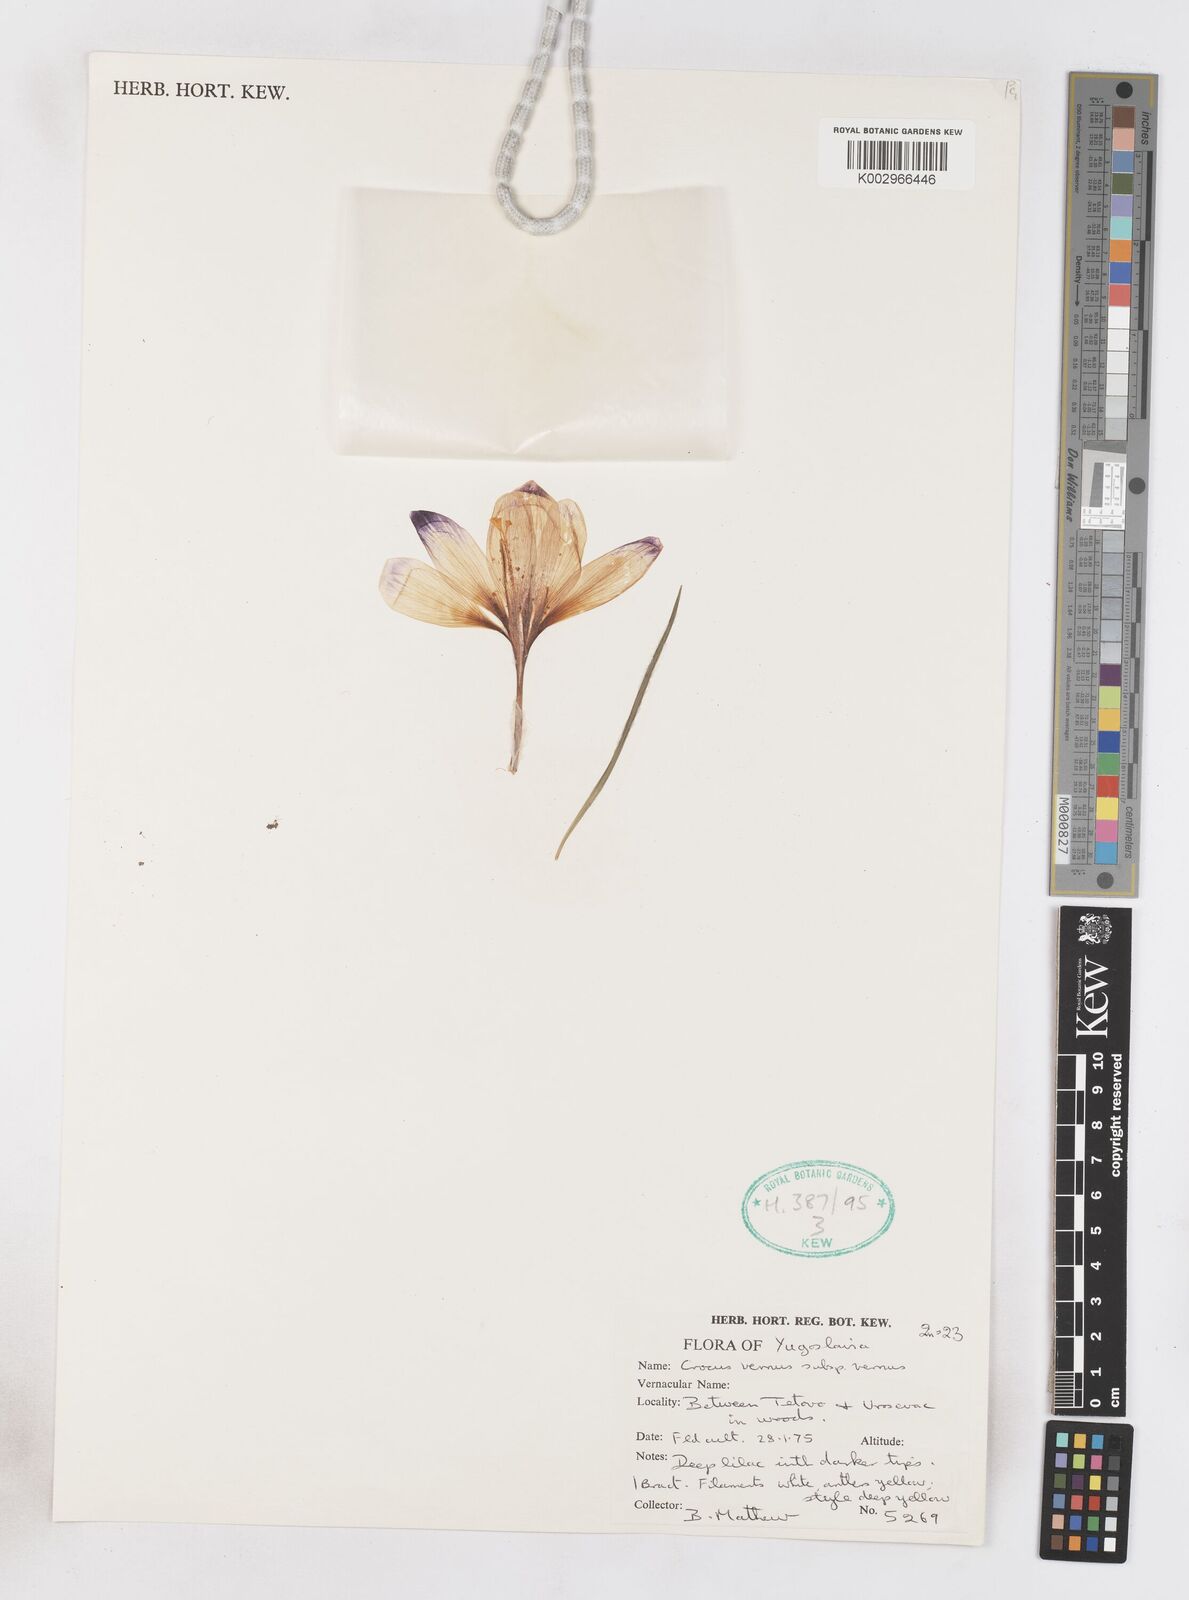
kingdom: Plantae
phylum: Tracheophyta
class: Liliopsida
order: Asparagales
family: Iridaceae
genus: Crocus
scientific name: Crocus vernus
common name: Spring crocus
